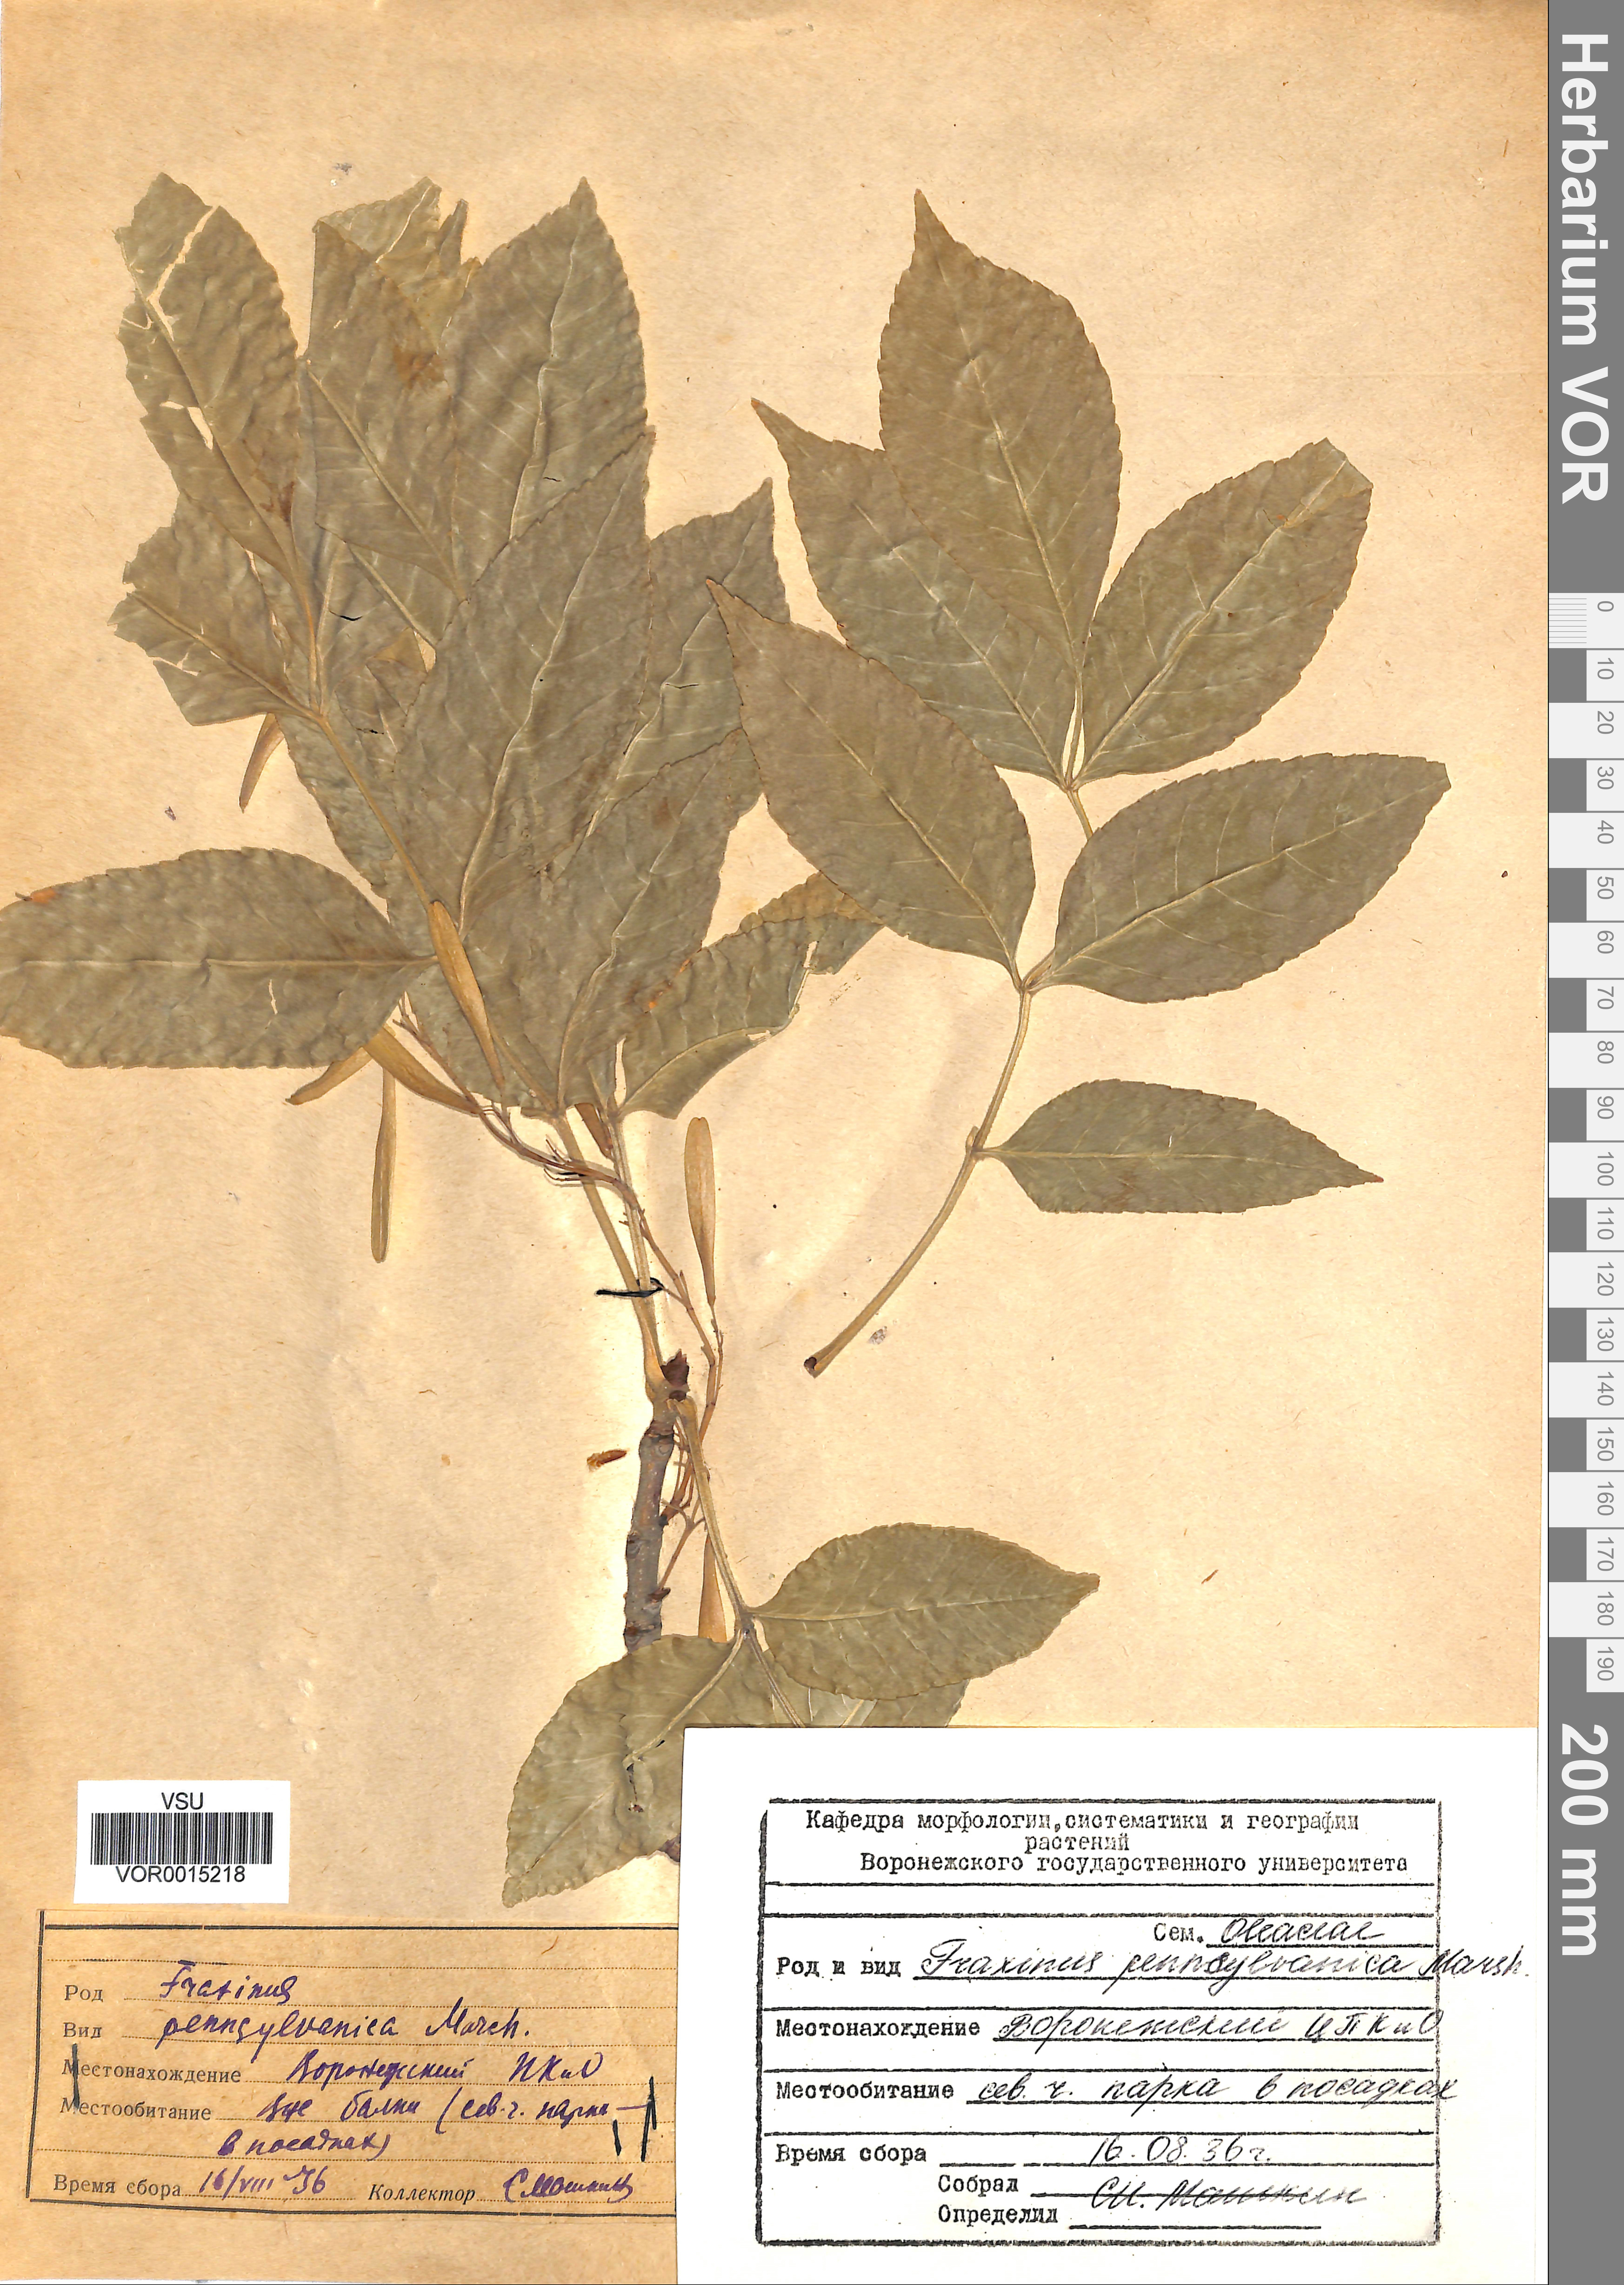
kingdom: Plantae
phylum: Tracheophyta
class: Magnoliopsida
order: Lamiales
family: Oleaceae
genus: Fraxinus
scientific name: Fraxinus pennsylvanica
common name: Green ash
